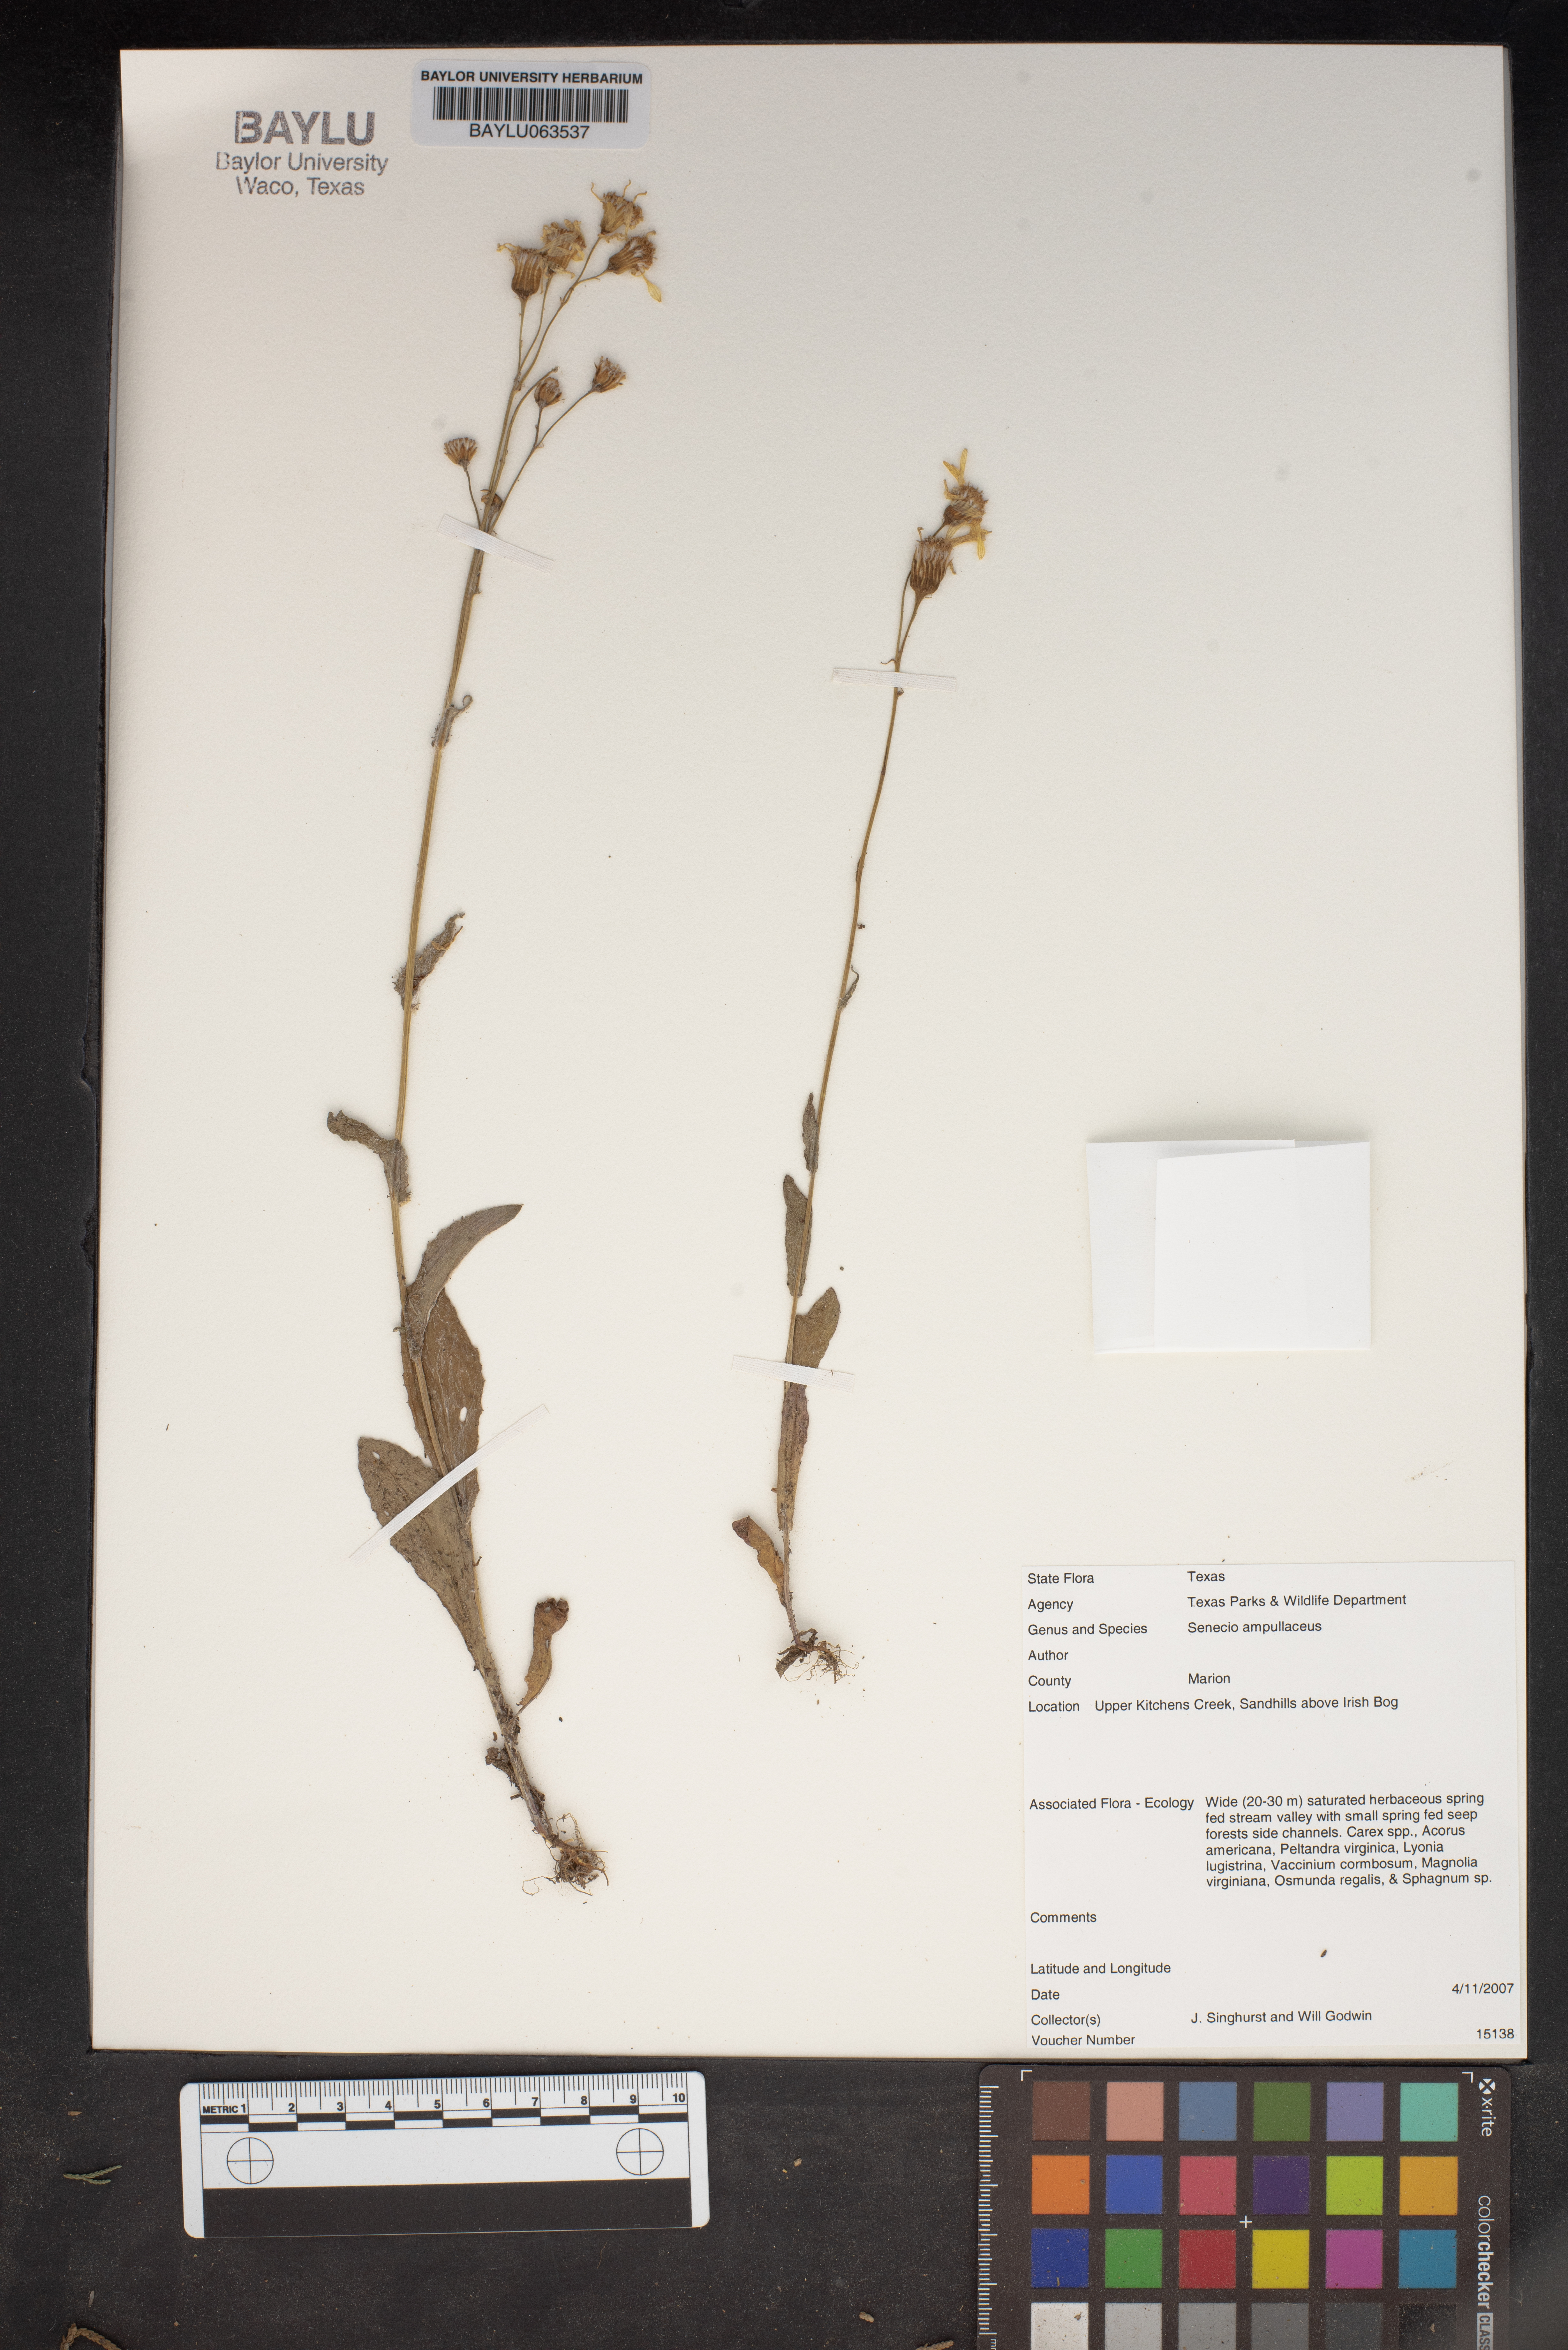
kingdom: Plantae
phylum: Tracheophyta
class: Magnoliopsida
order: Asterales
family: Asteraceae
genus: Senecio
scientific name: Senecio ampullaceus
